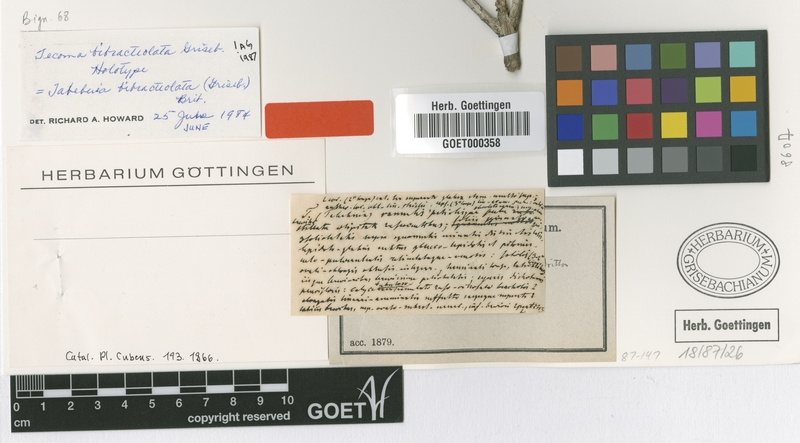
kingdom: Plantae
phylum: Tracheophyta
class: Magnoliopsida
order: Lamiales
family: Bignoniaceae
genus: Tabebuia
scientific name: Tabebuia bibracteolata
